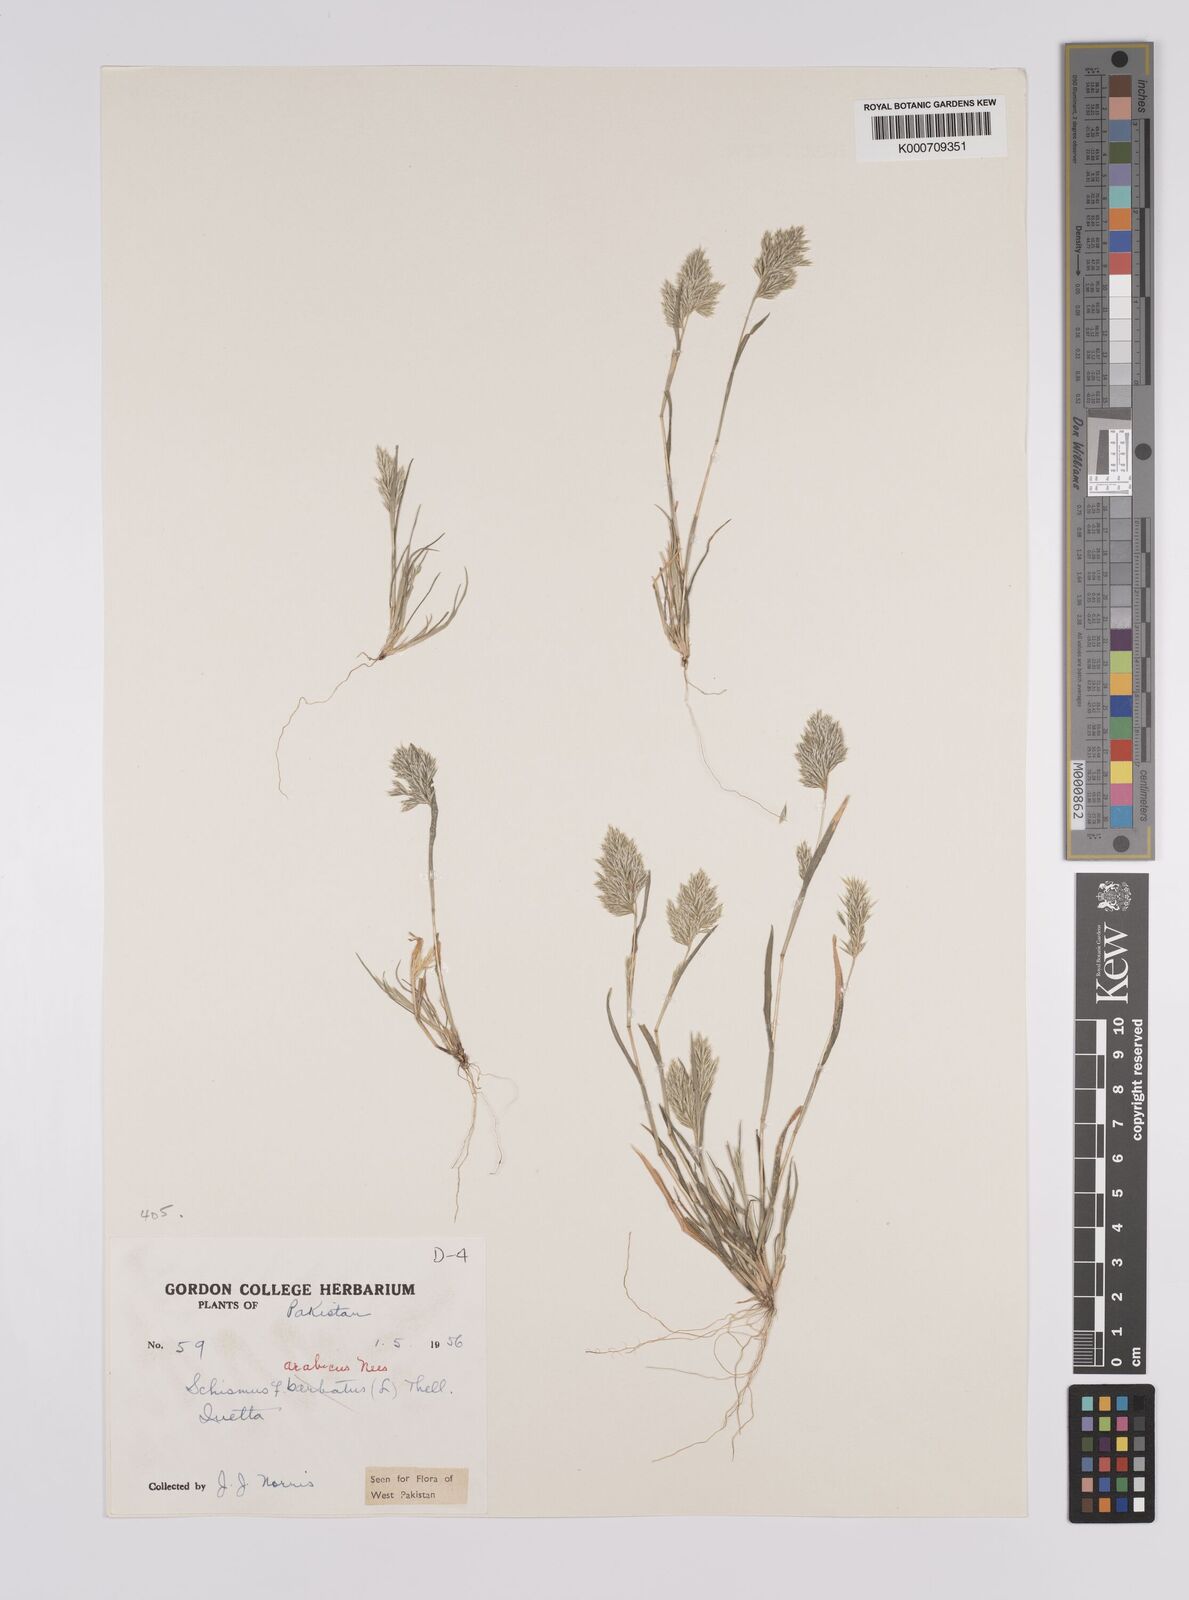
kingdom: Plantae
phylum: Tracheophyta
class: Liliopsida
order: Poales
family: Poaceae
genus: Schismus
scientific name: Schismus arabicus
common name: Arabian schismus
